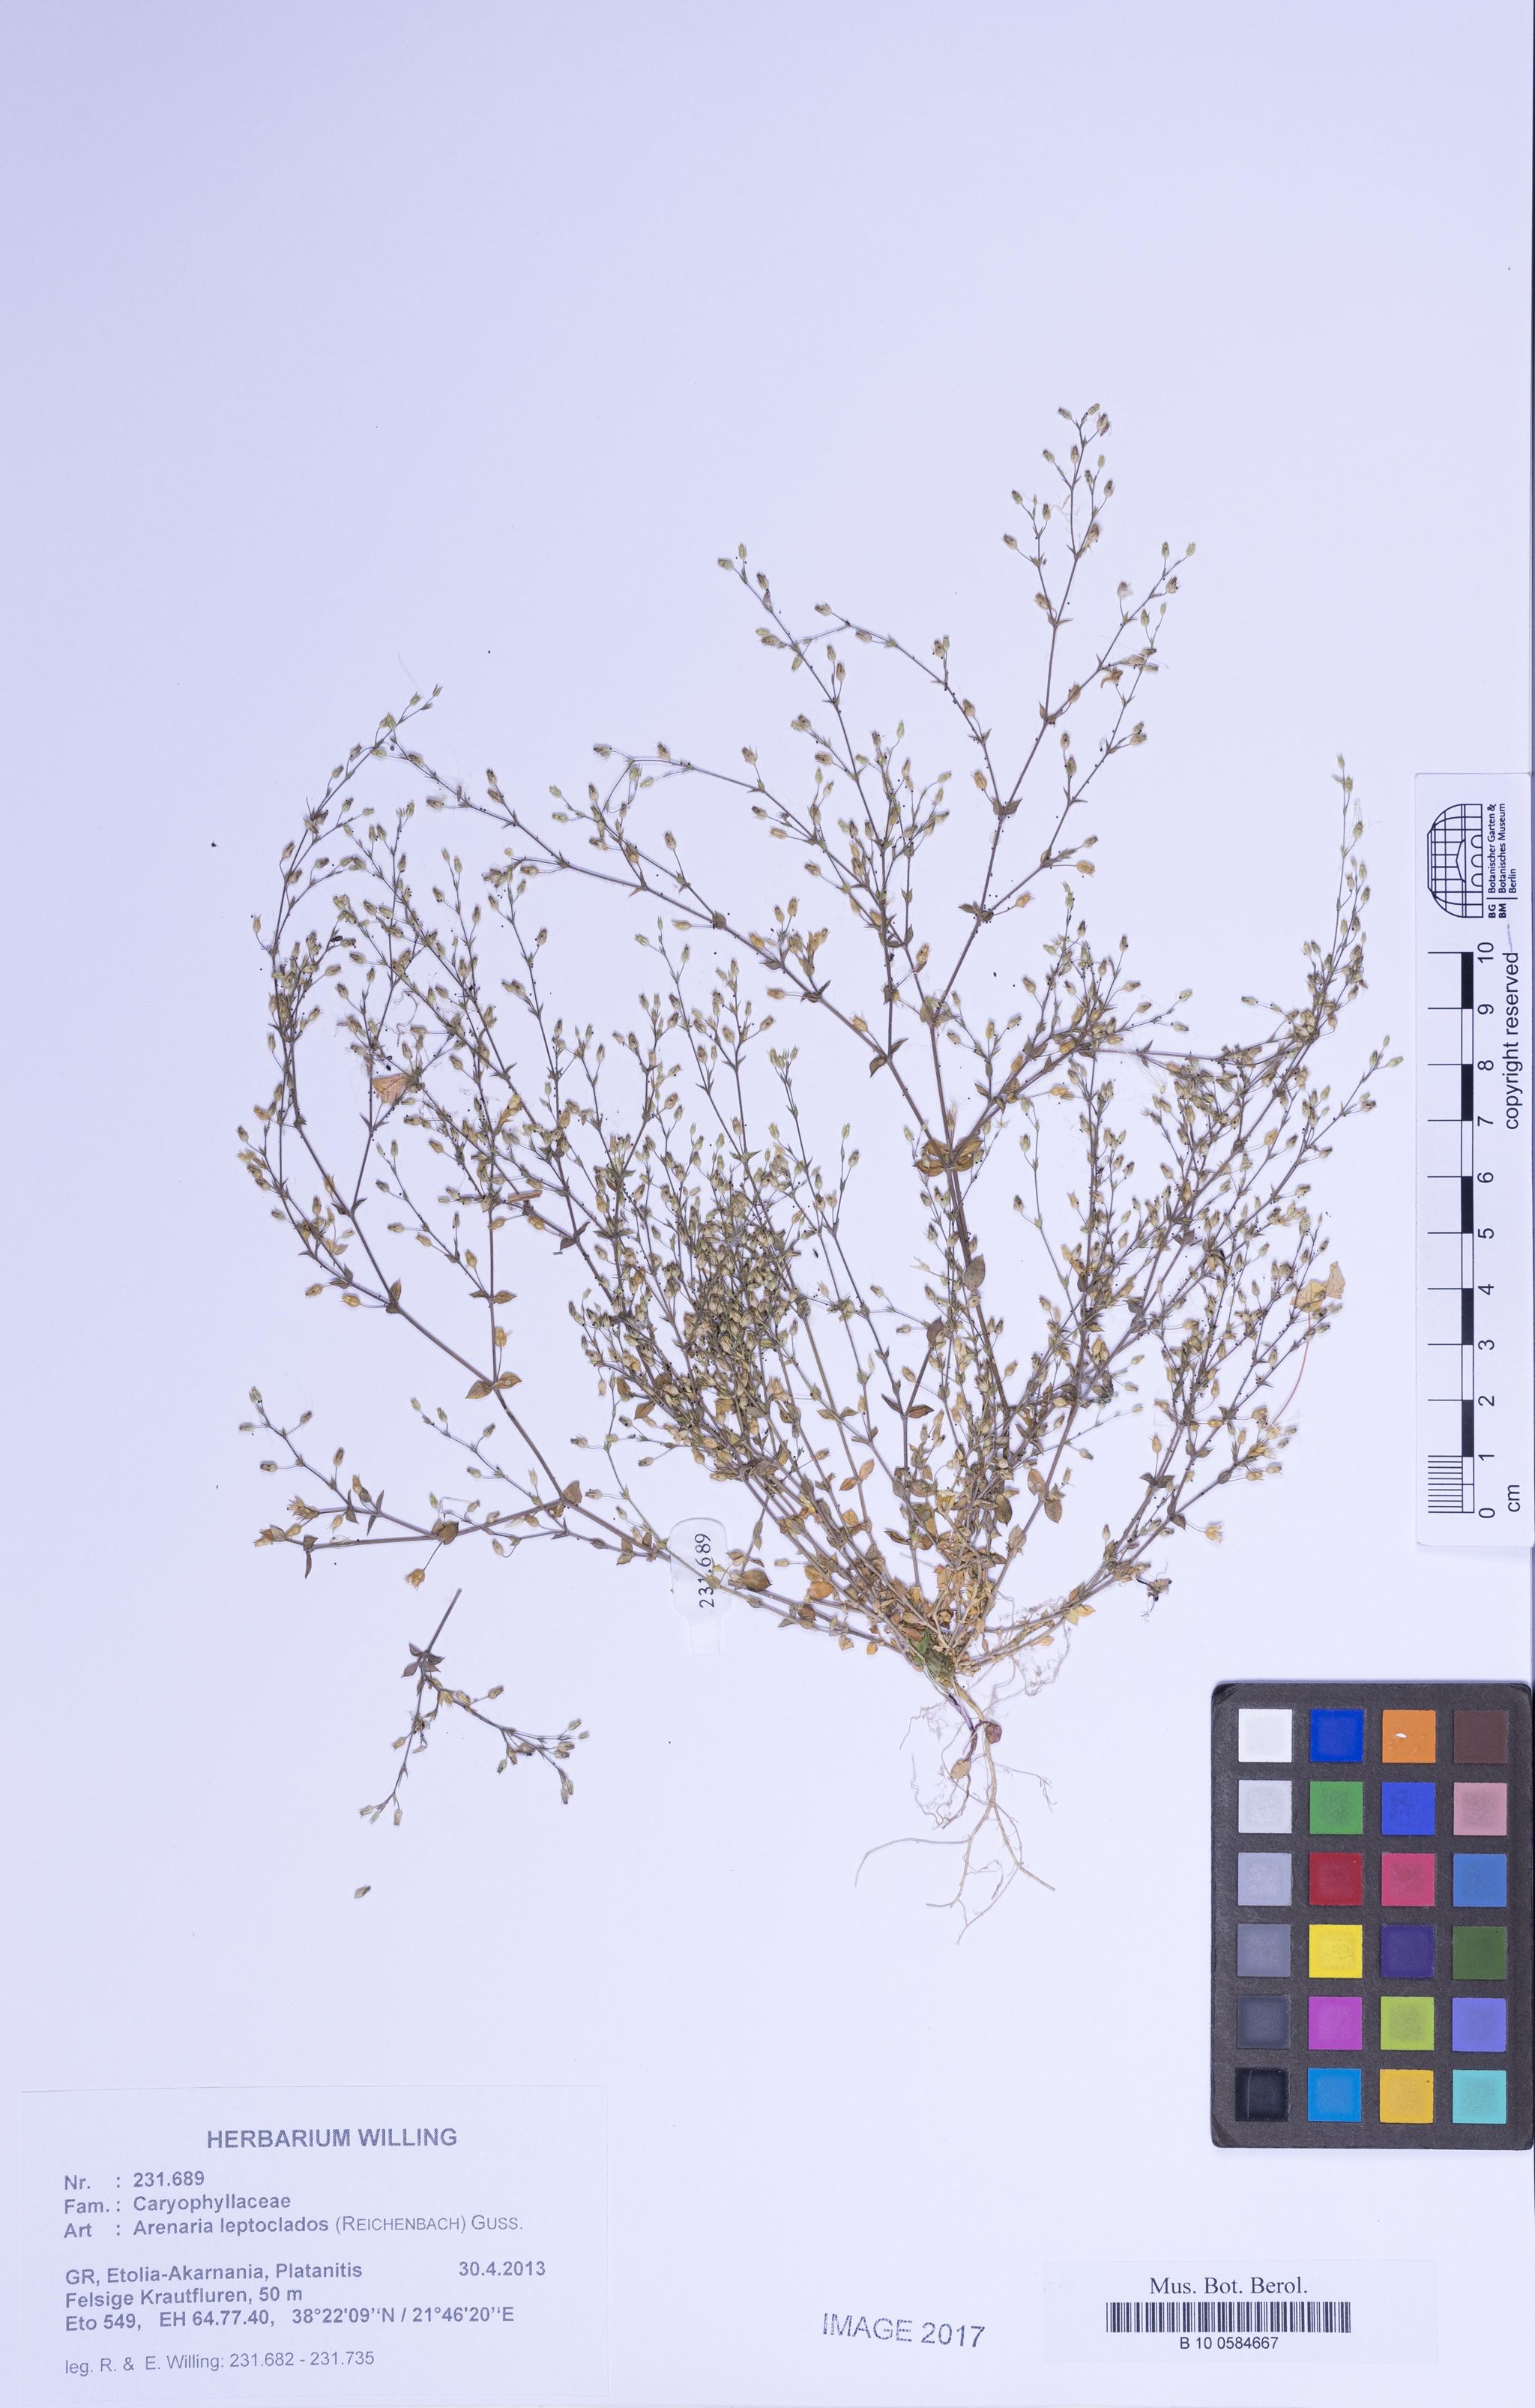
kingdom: Plantae
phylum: Tracheophyta
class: Magnoliopsida
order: Caryophyllales
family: Caryophyllaceae
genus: Arenaria
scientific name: Arenaria leptoclados
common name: Thyme-leaved sandwort
